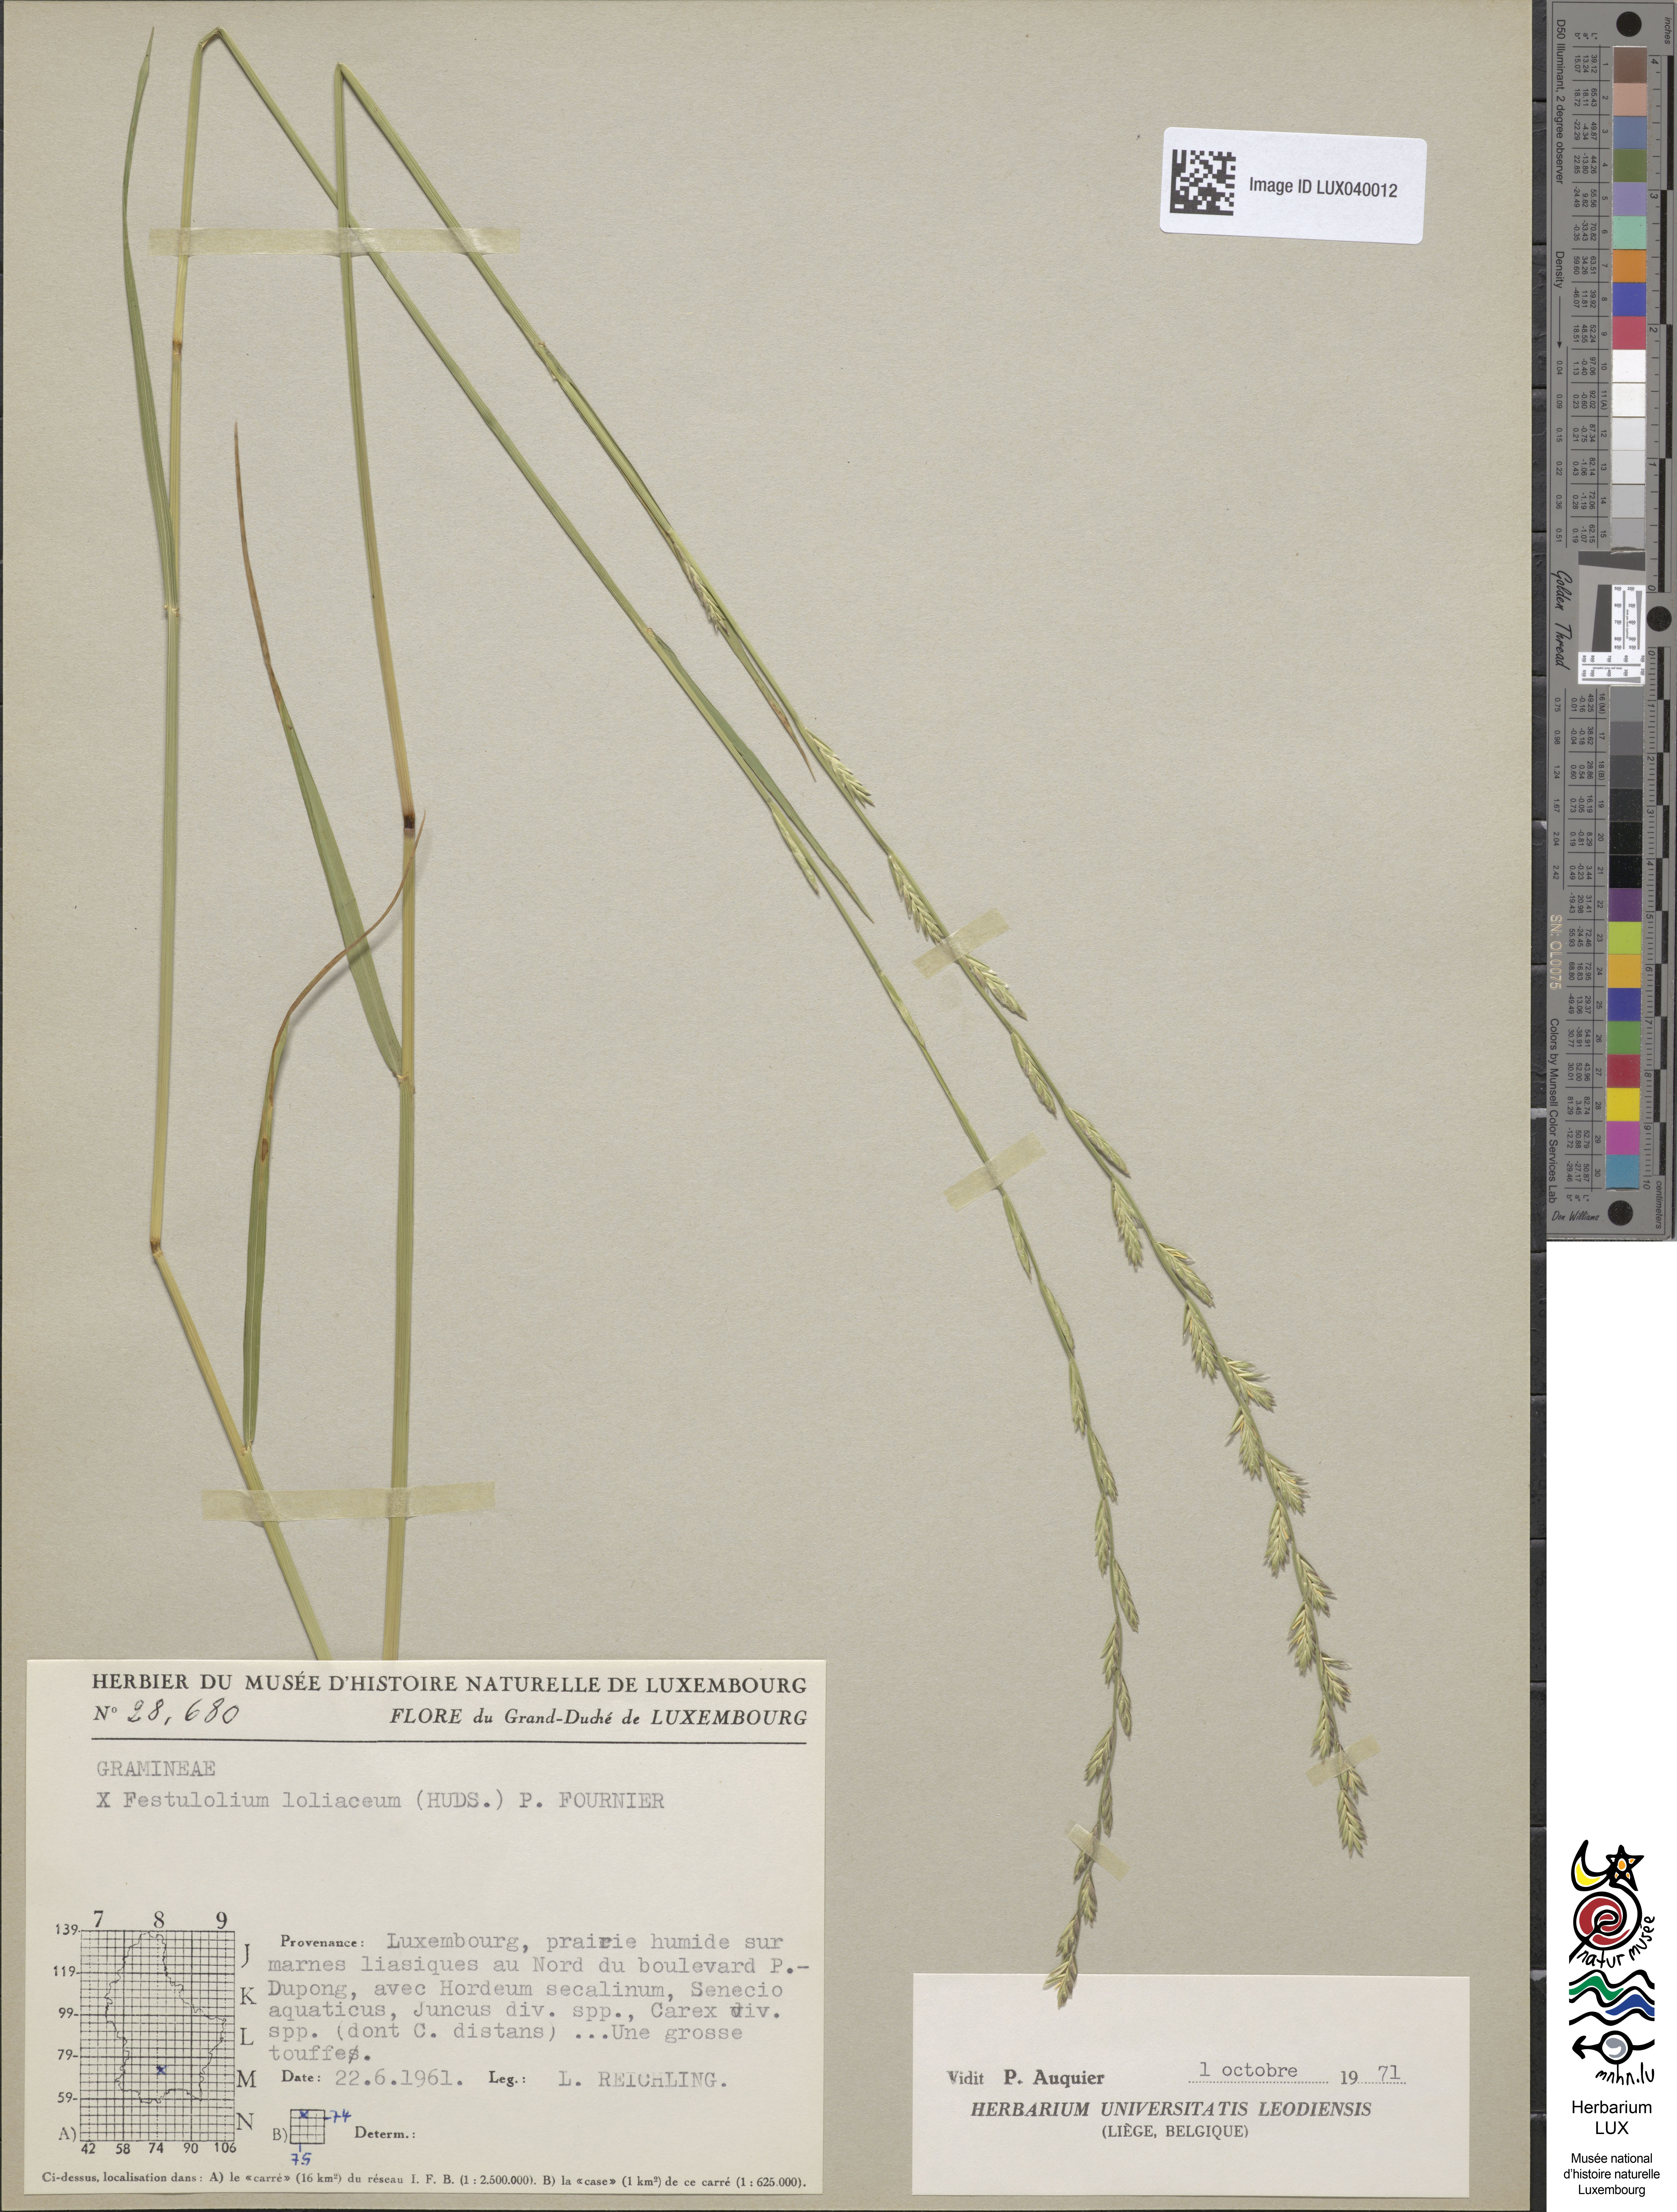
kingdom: Plantae
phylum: Tracheophyta
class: Liliopsida
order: Poales
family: Poaceae
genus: Lolium
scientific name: Lolium elongatum
